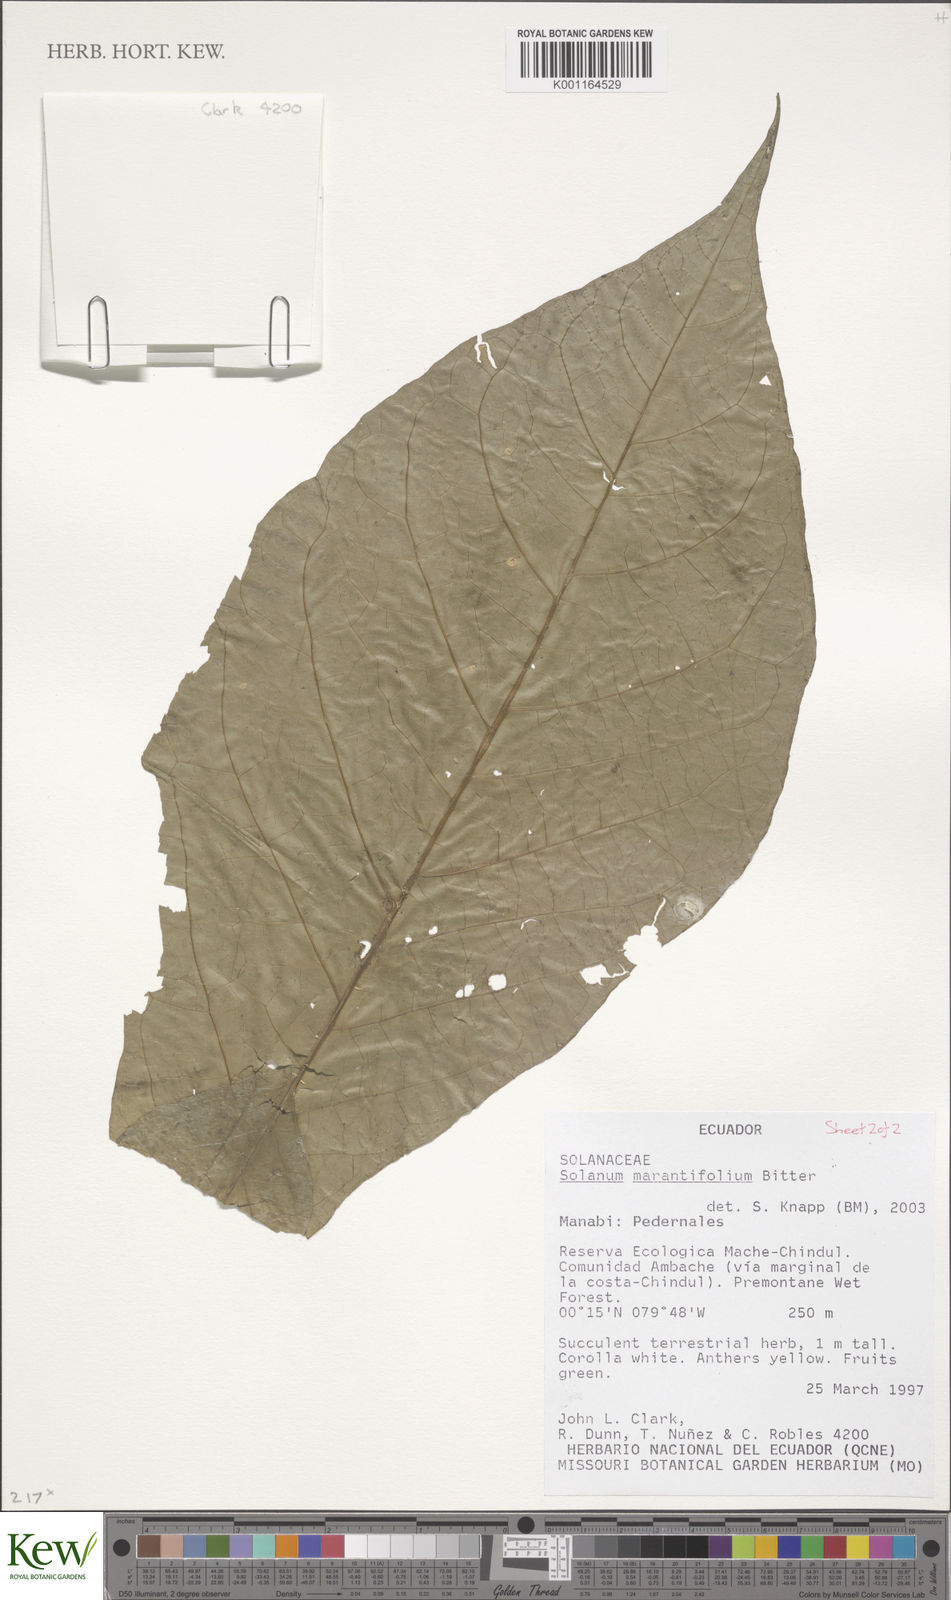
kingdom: Plantae
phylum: Tracheophyta
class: Magnoliopsida
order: Solanales
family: Solanaceae
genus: Solanum
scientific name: Solanum marantifolium
